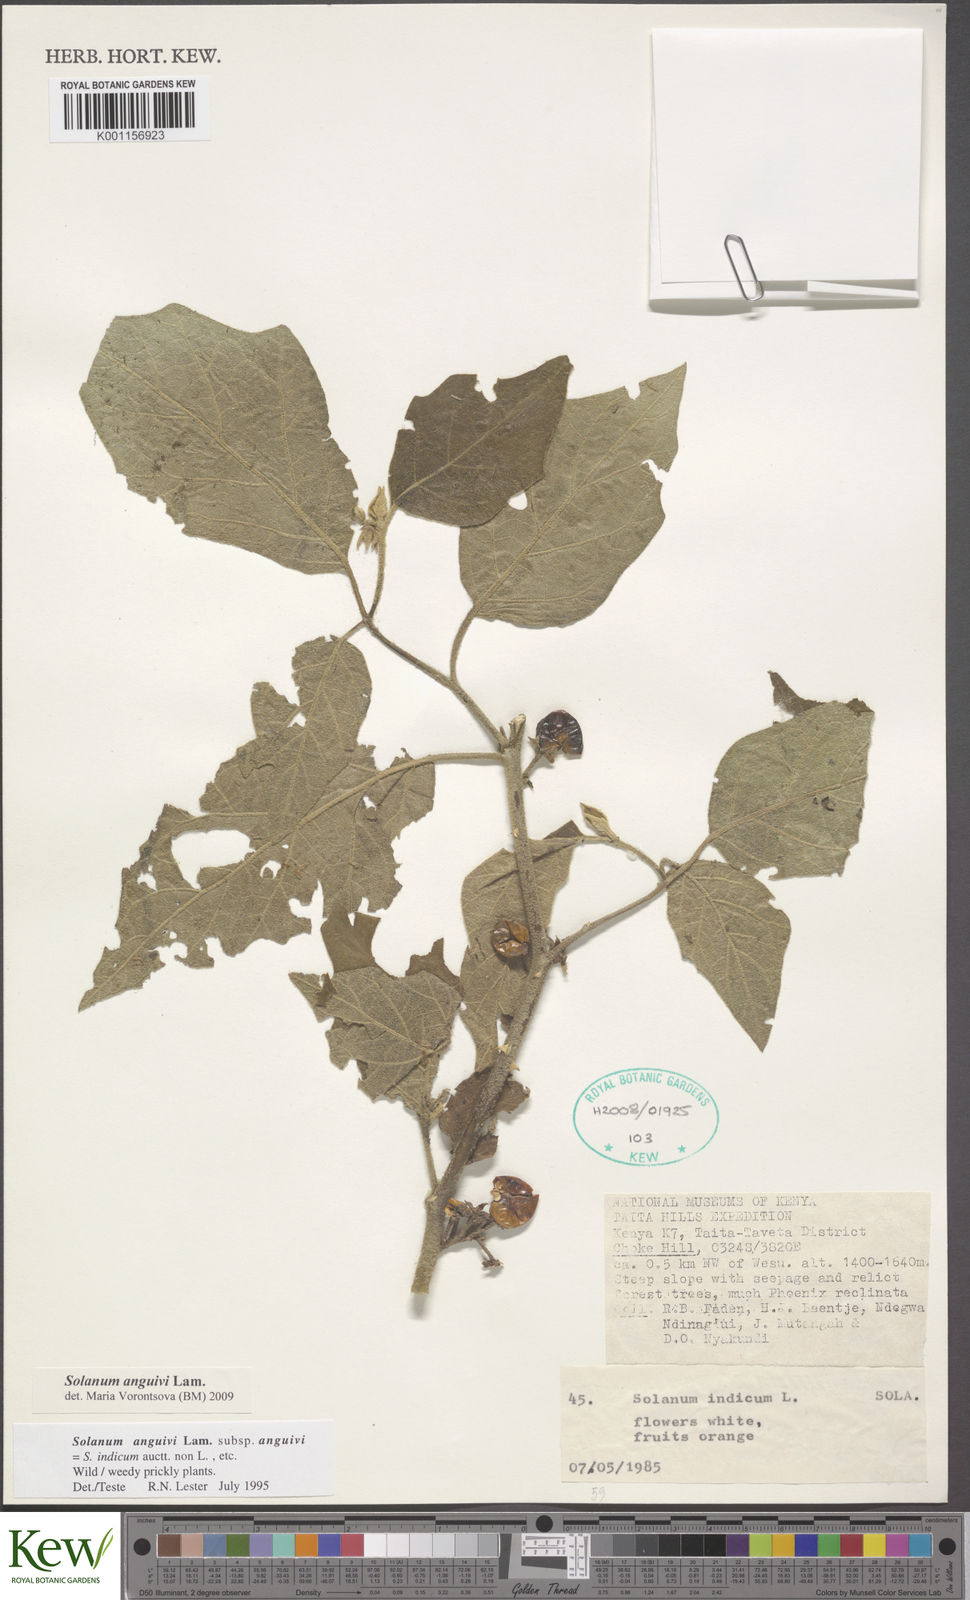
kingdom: Plantae
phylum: Tracheophyta
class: Magnoliopsida
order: Solanales
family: Solanaceae
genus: Solanum
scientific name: Solanum anguivi
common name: Forest bitterberry
